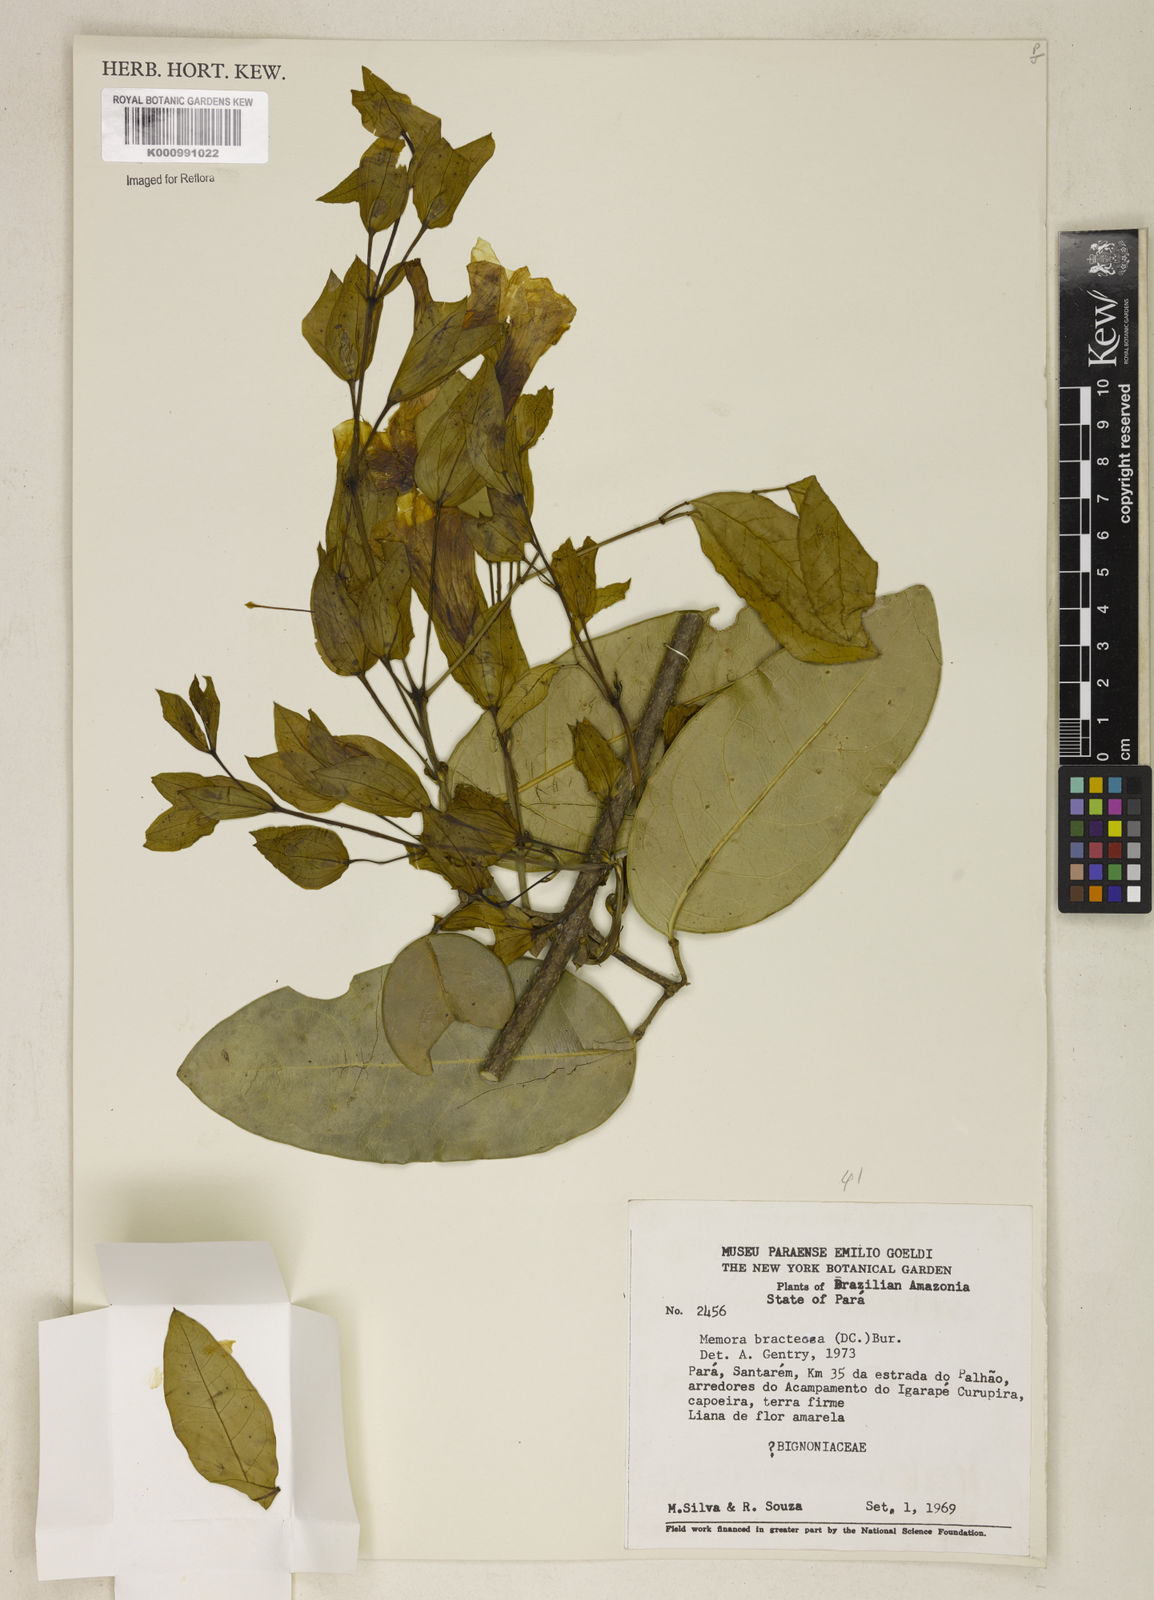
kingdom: Plantae
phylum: Tracheophyta
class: Magnoliopsida
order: Lamiales
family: Bignoniaceae
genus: Adenocalymma
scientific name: Adenocalymma
